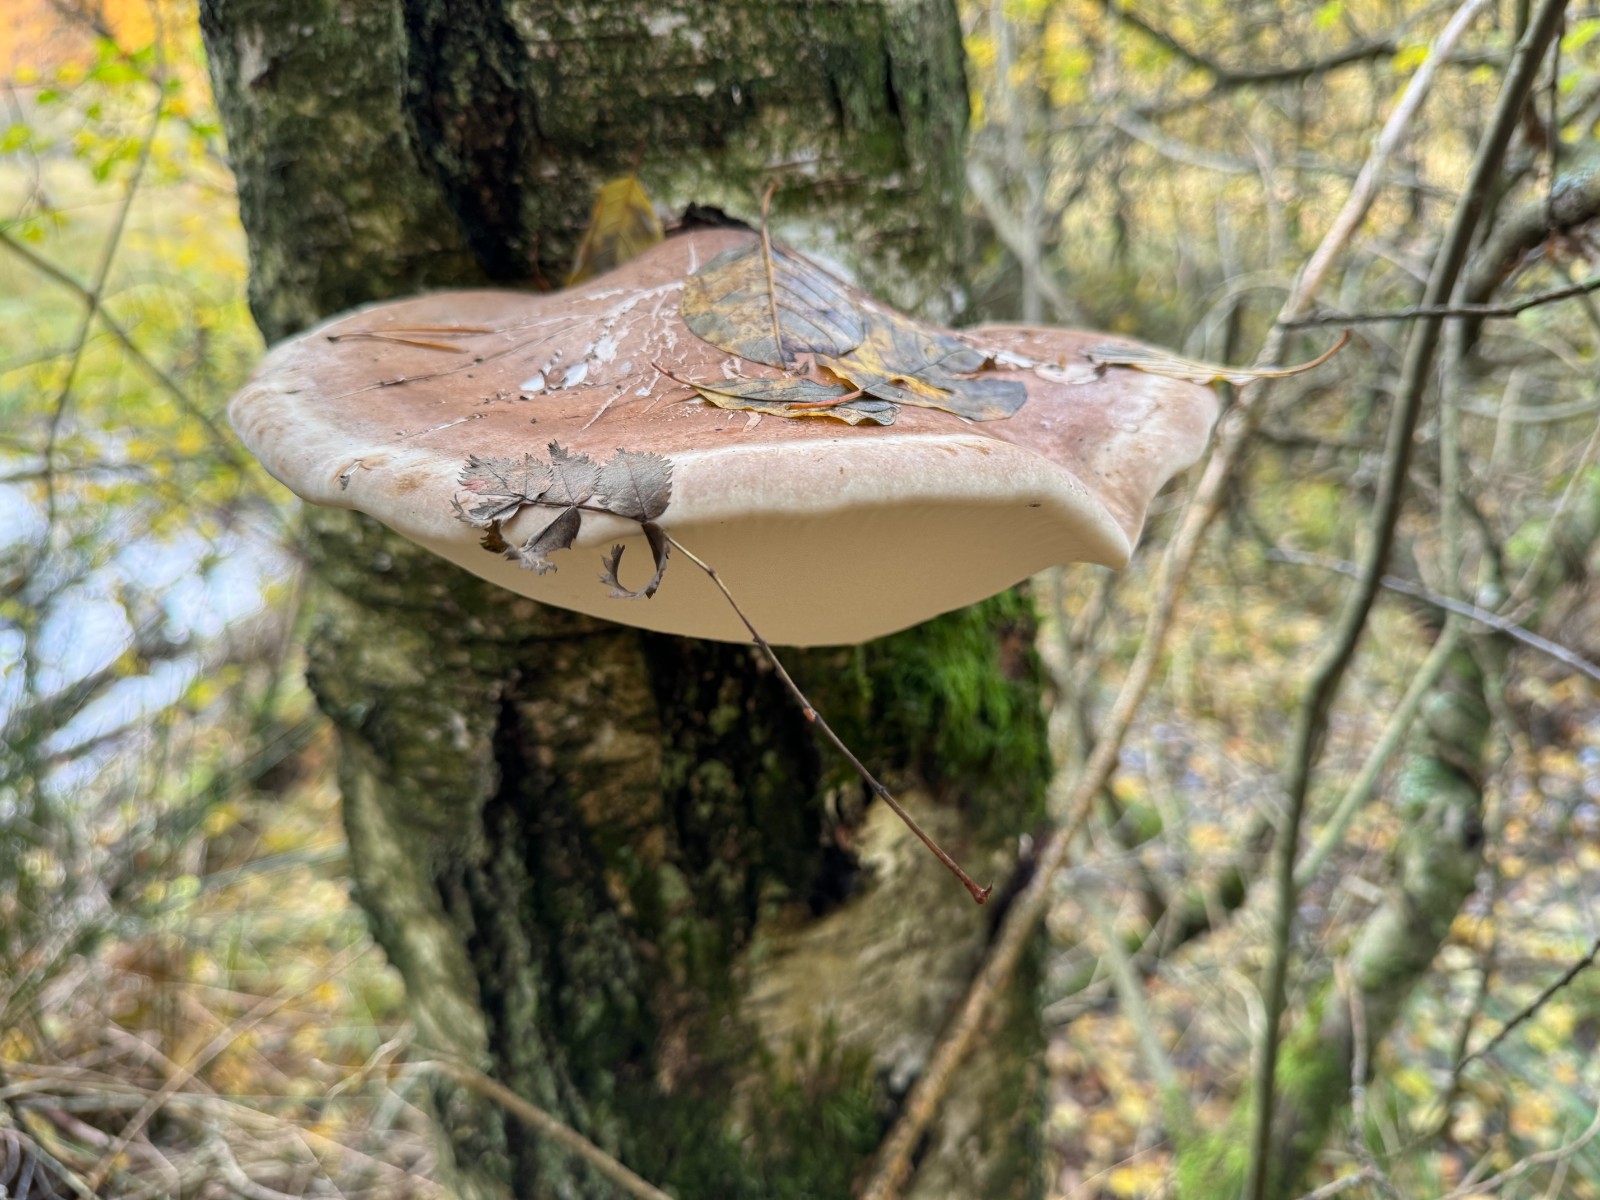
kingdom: Fungi
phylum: Basidiomycota
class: Agaricomycetes
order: Polyporales
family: Fomitopsidaceae
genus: Fomitopsis
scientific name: Fomitopsis betulina
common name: birkeporesvamp
